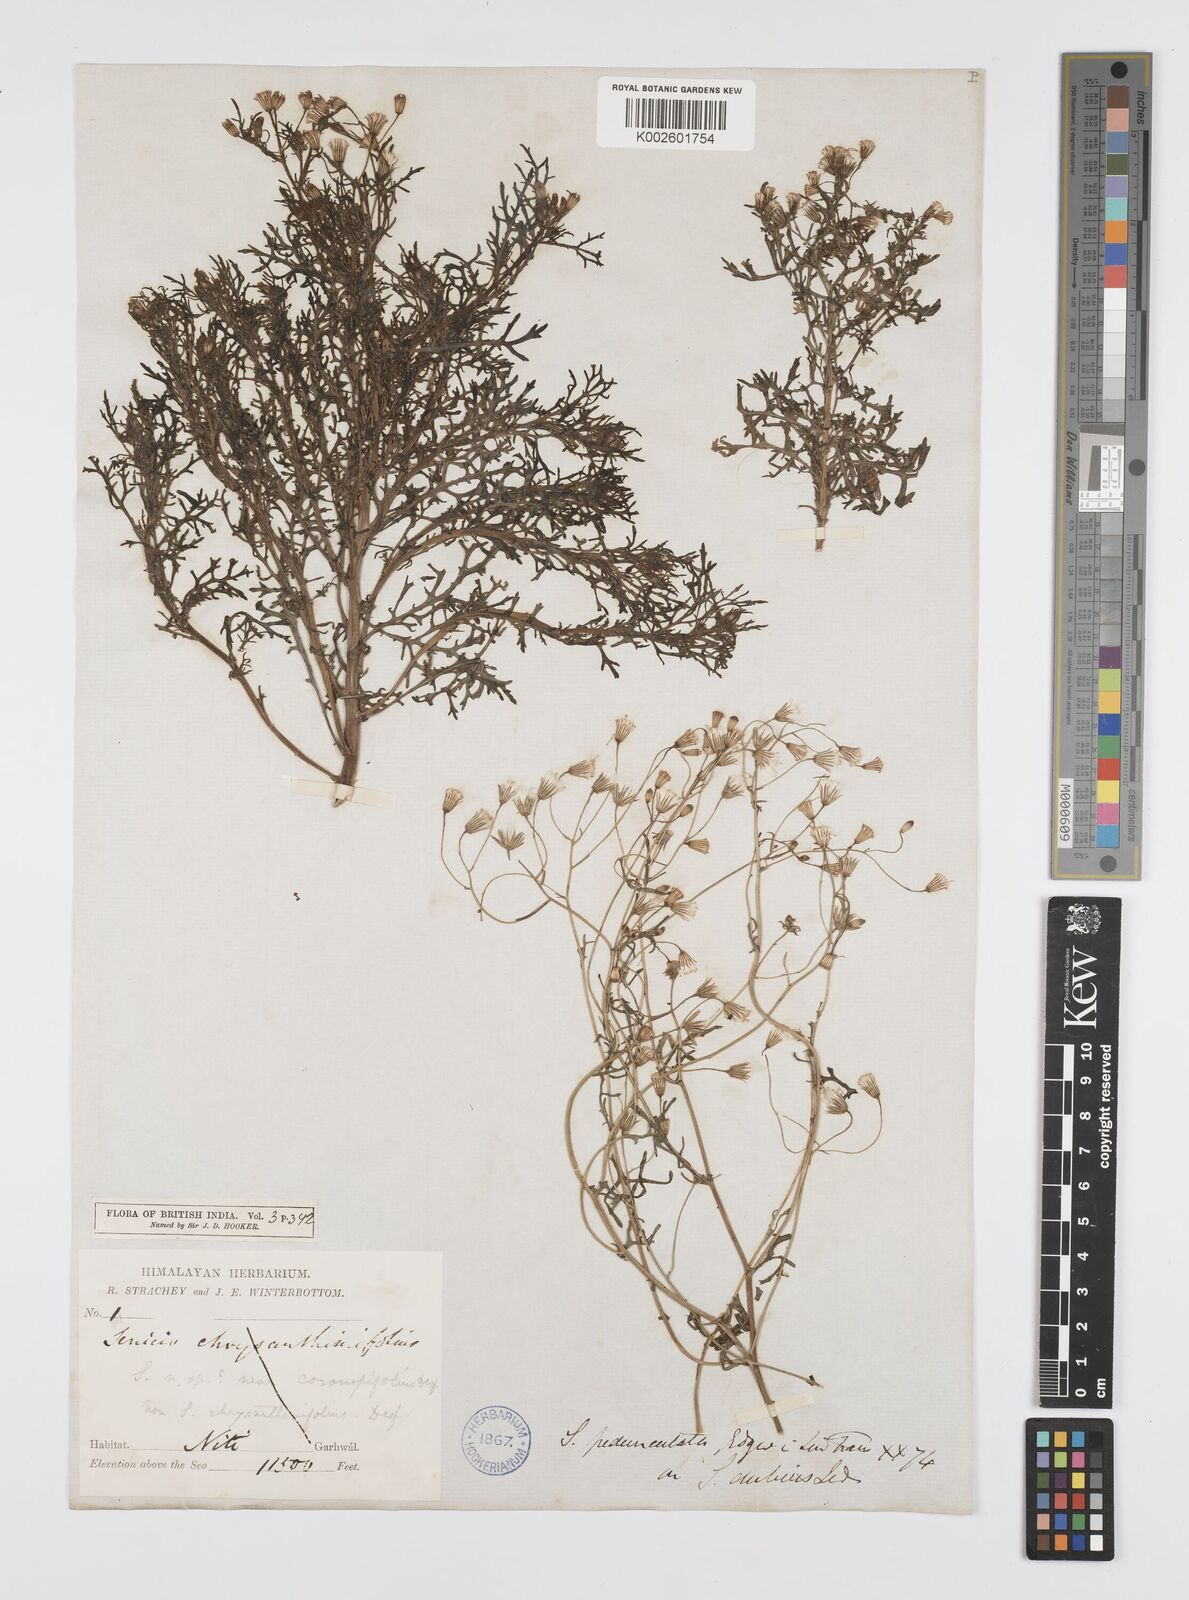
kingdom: Plantae
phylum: Tracheophyta
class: Magnoliopsida
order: Asterales
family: Asteraceae
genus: Senecio
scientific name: Senecio krascheninnikovii
